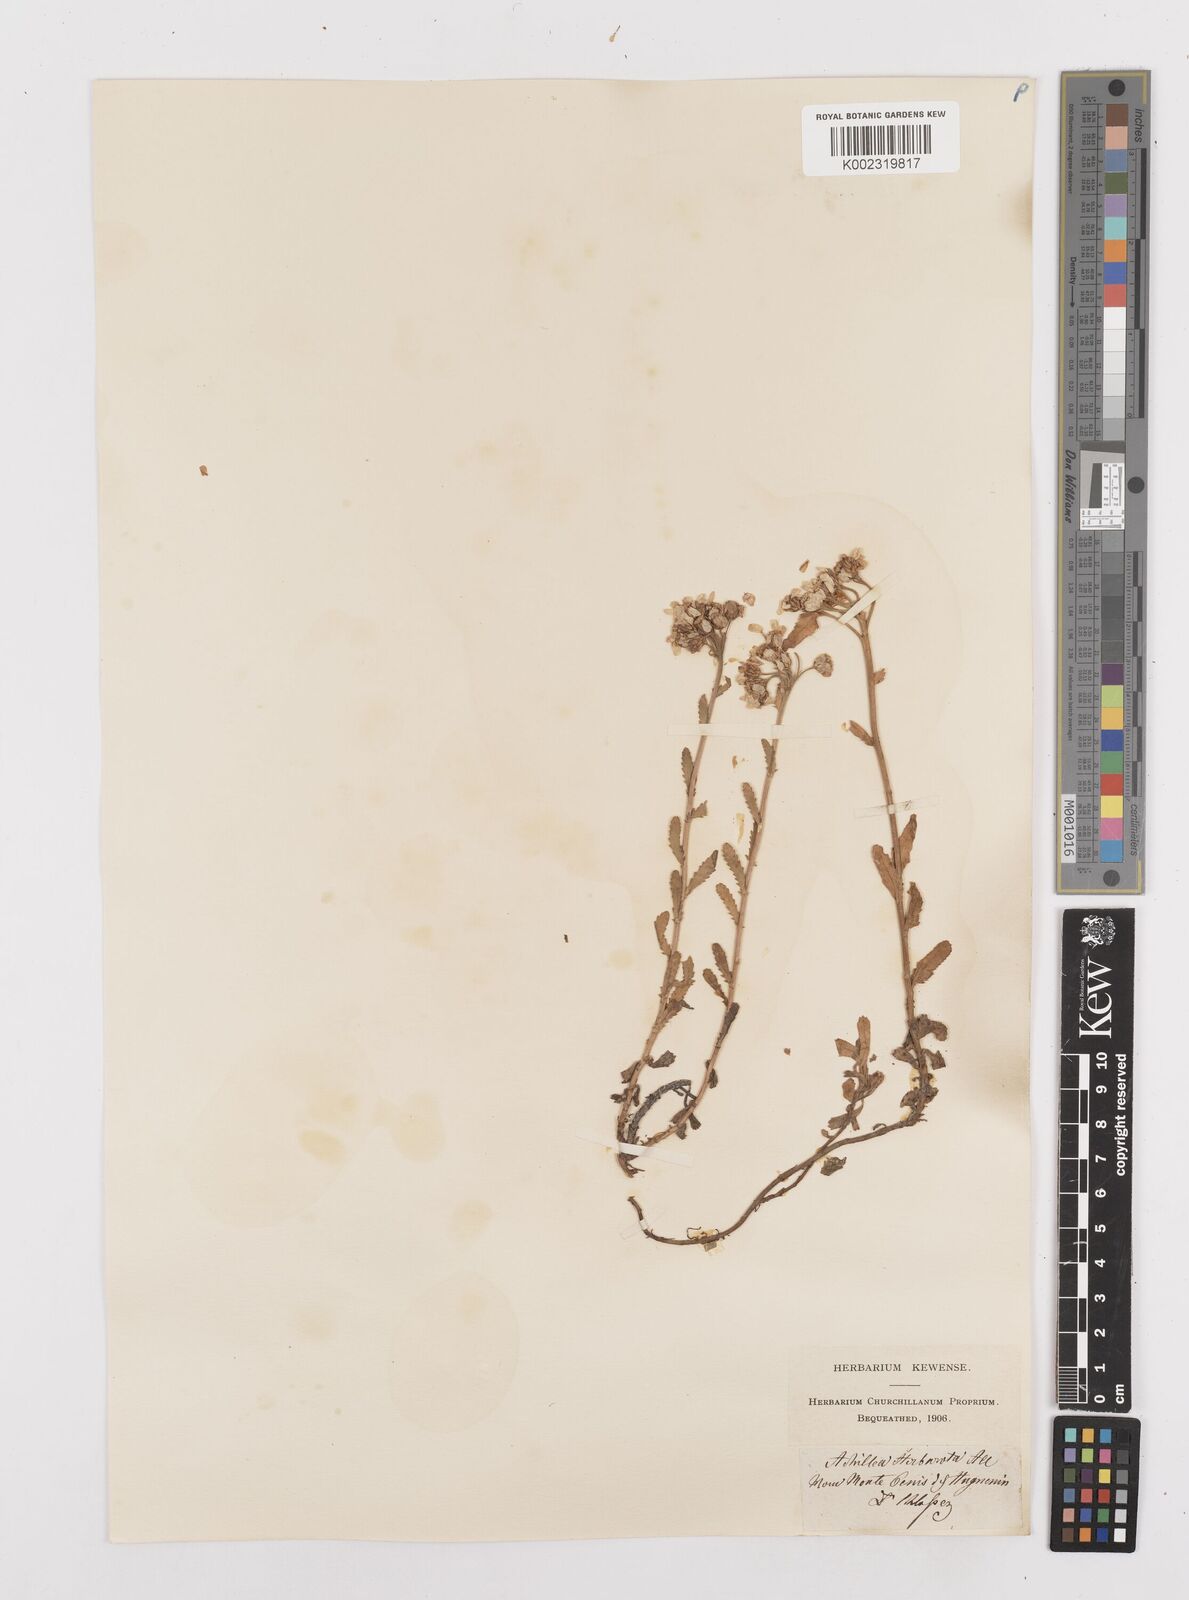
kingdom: Plantae
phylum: Tracheophyta
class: Magnoliopsida
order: Asterales
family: Asteraceae
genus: Achillea
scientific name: Achillea erba-rotta
